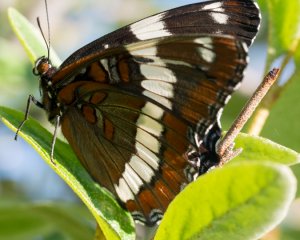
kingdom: Animalia
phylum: Arthropoda
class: Insecta
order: Lepidoptera
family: Nymphalidae
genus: Limenitis
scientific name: Limenitis arthemis
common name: Red-spotted Admiral
